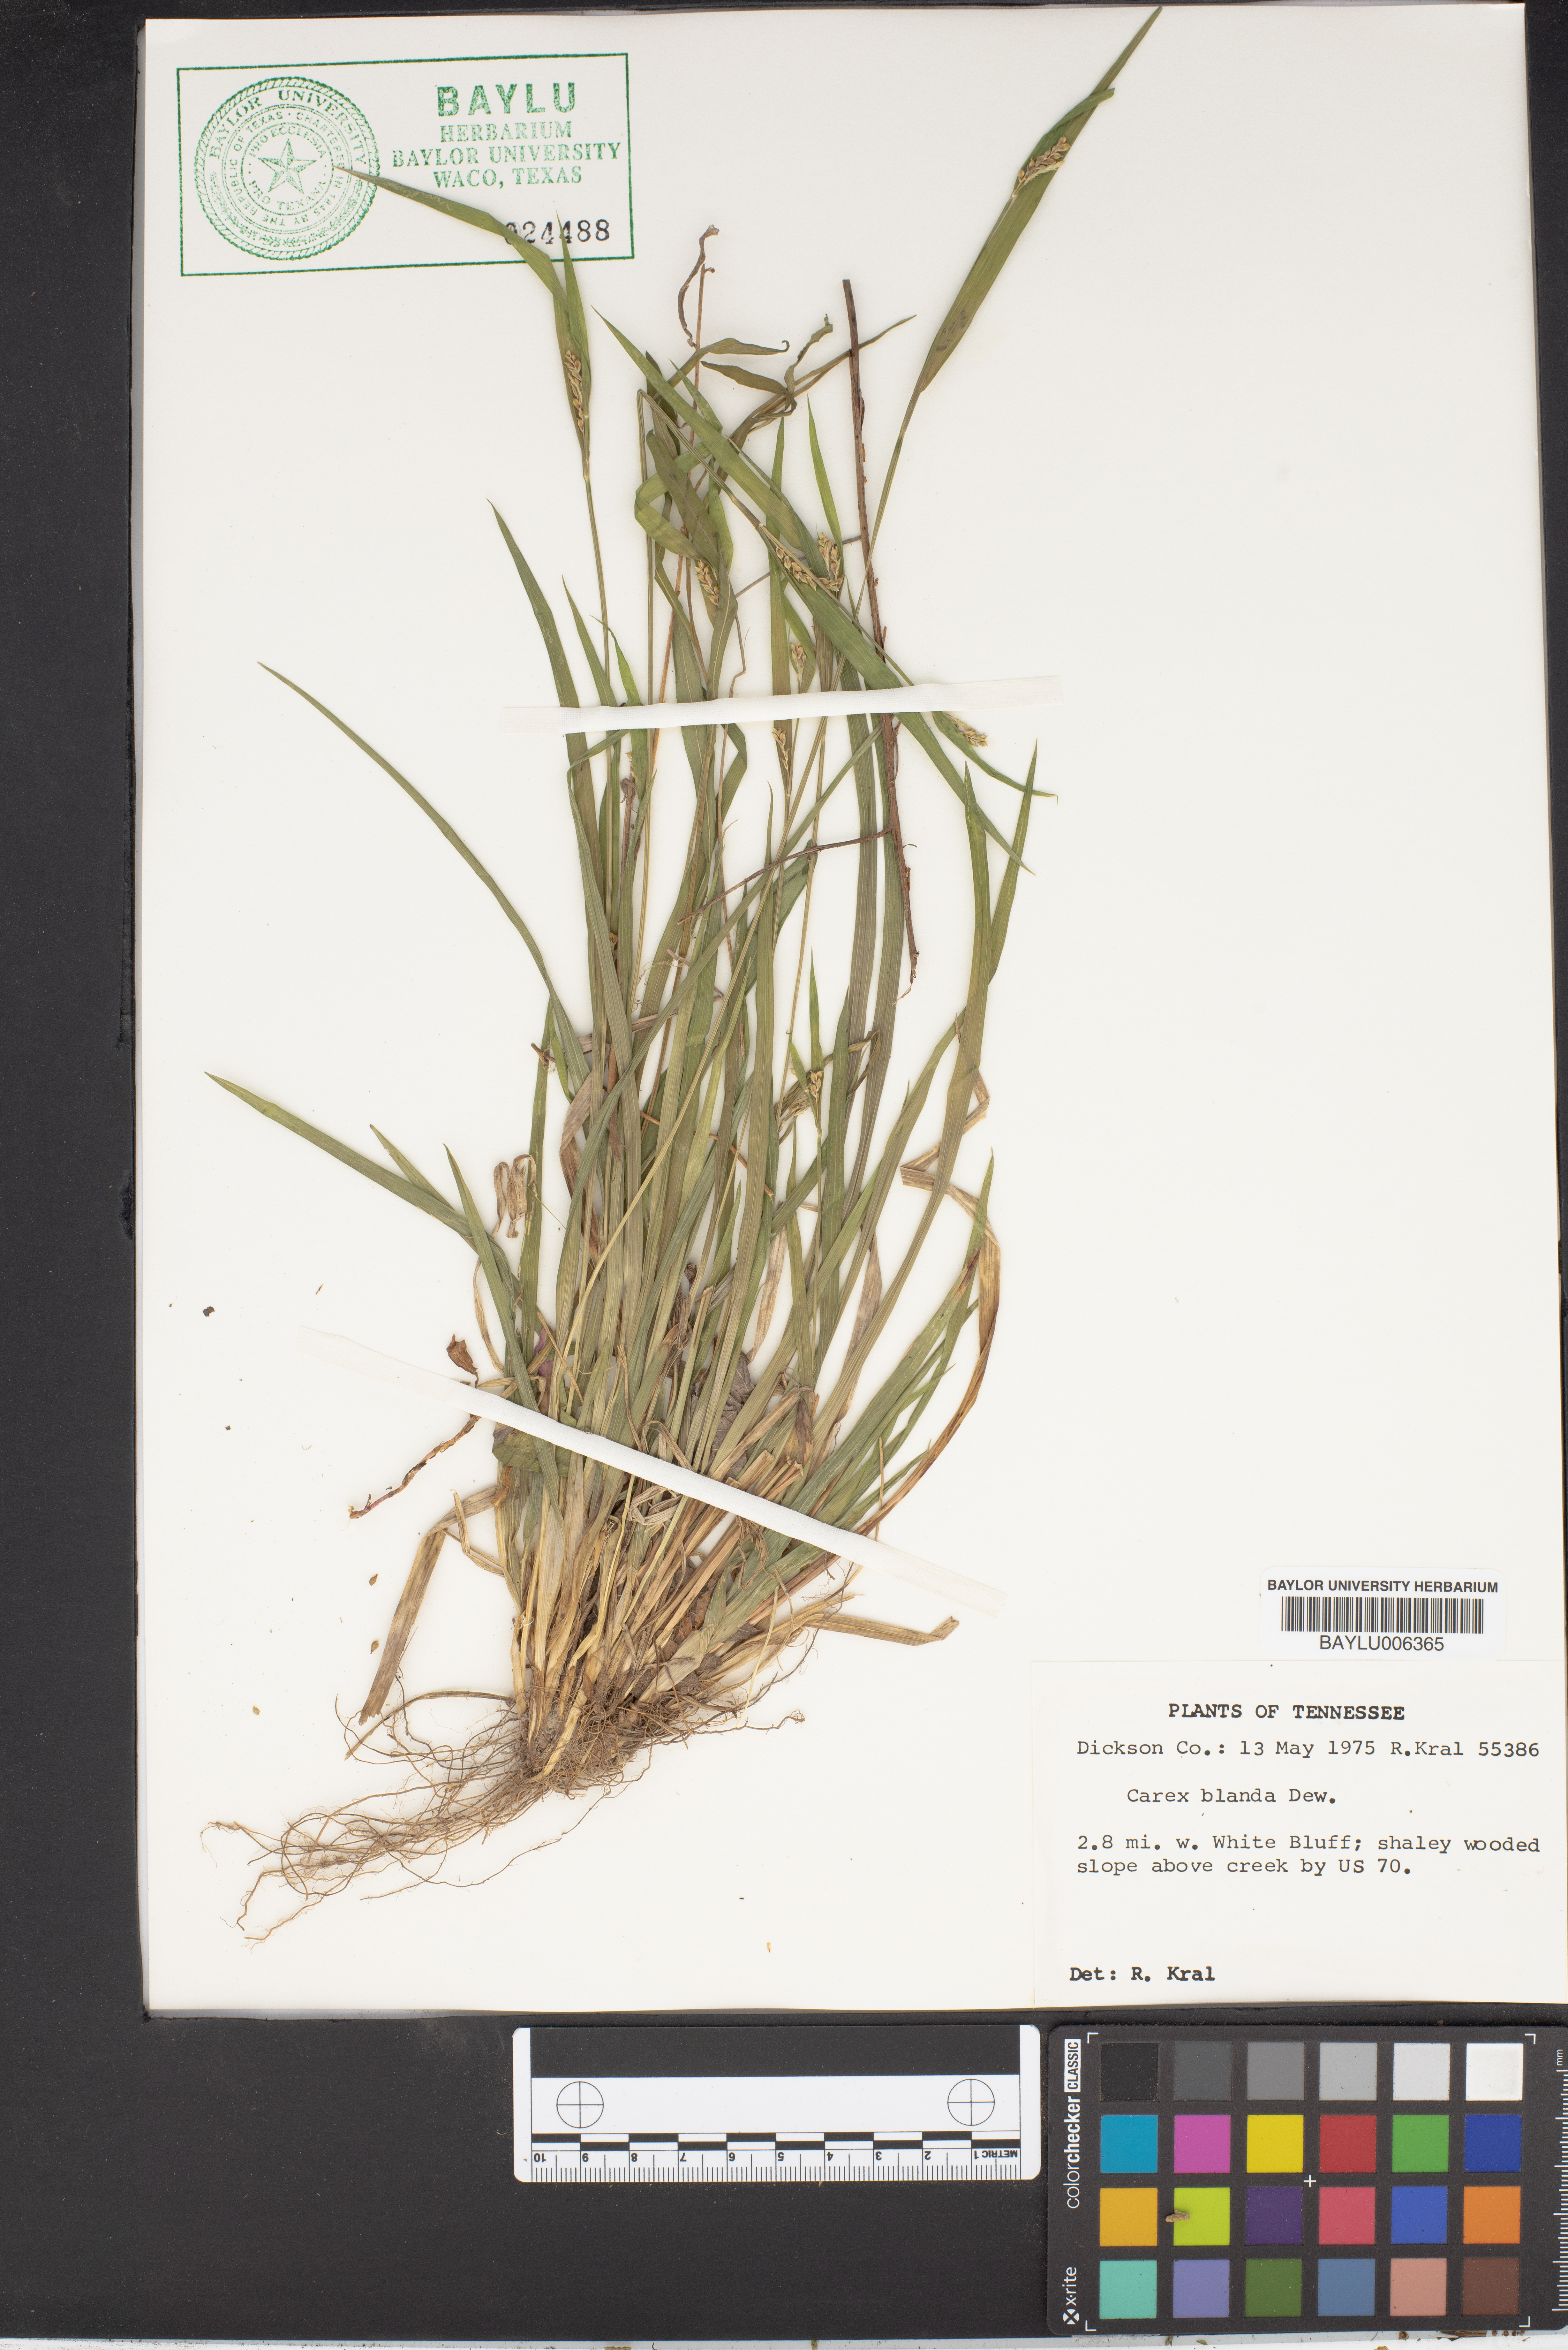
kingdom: Plantae
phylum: Tracheophyta
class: Liliopsida
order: Poales
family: Cyperaceae
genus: Carex
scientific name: Carex blanda
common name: Bland sedge
